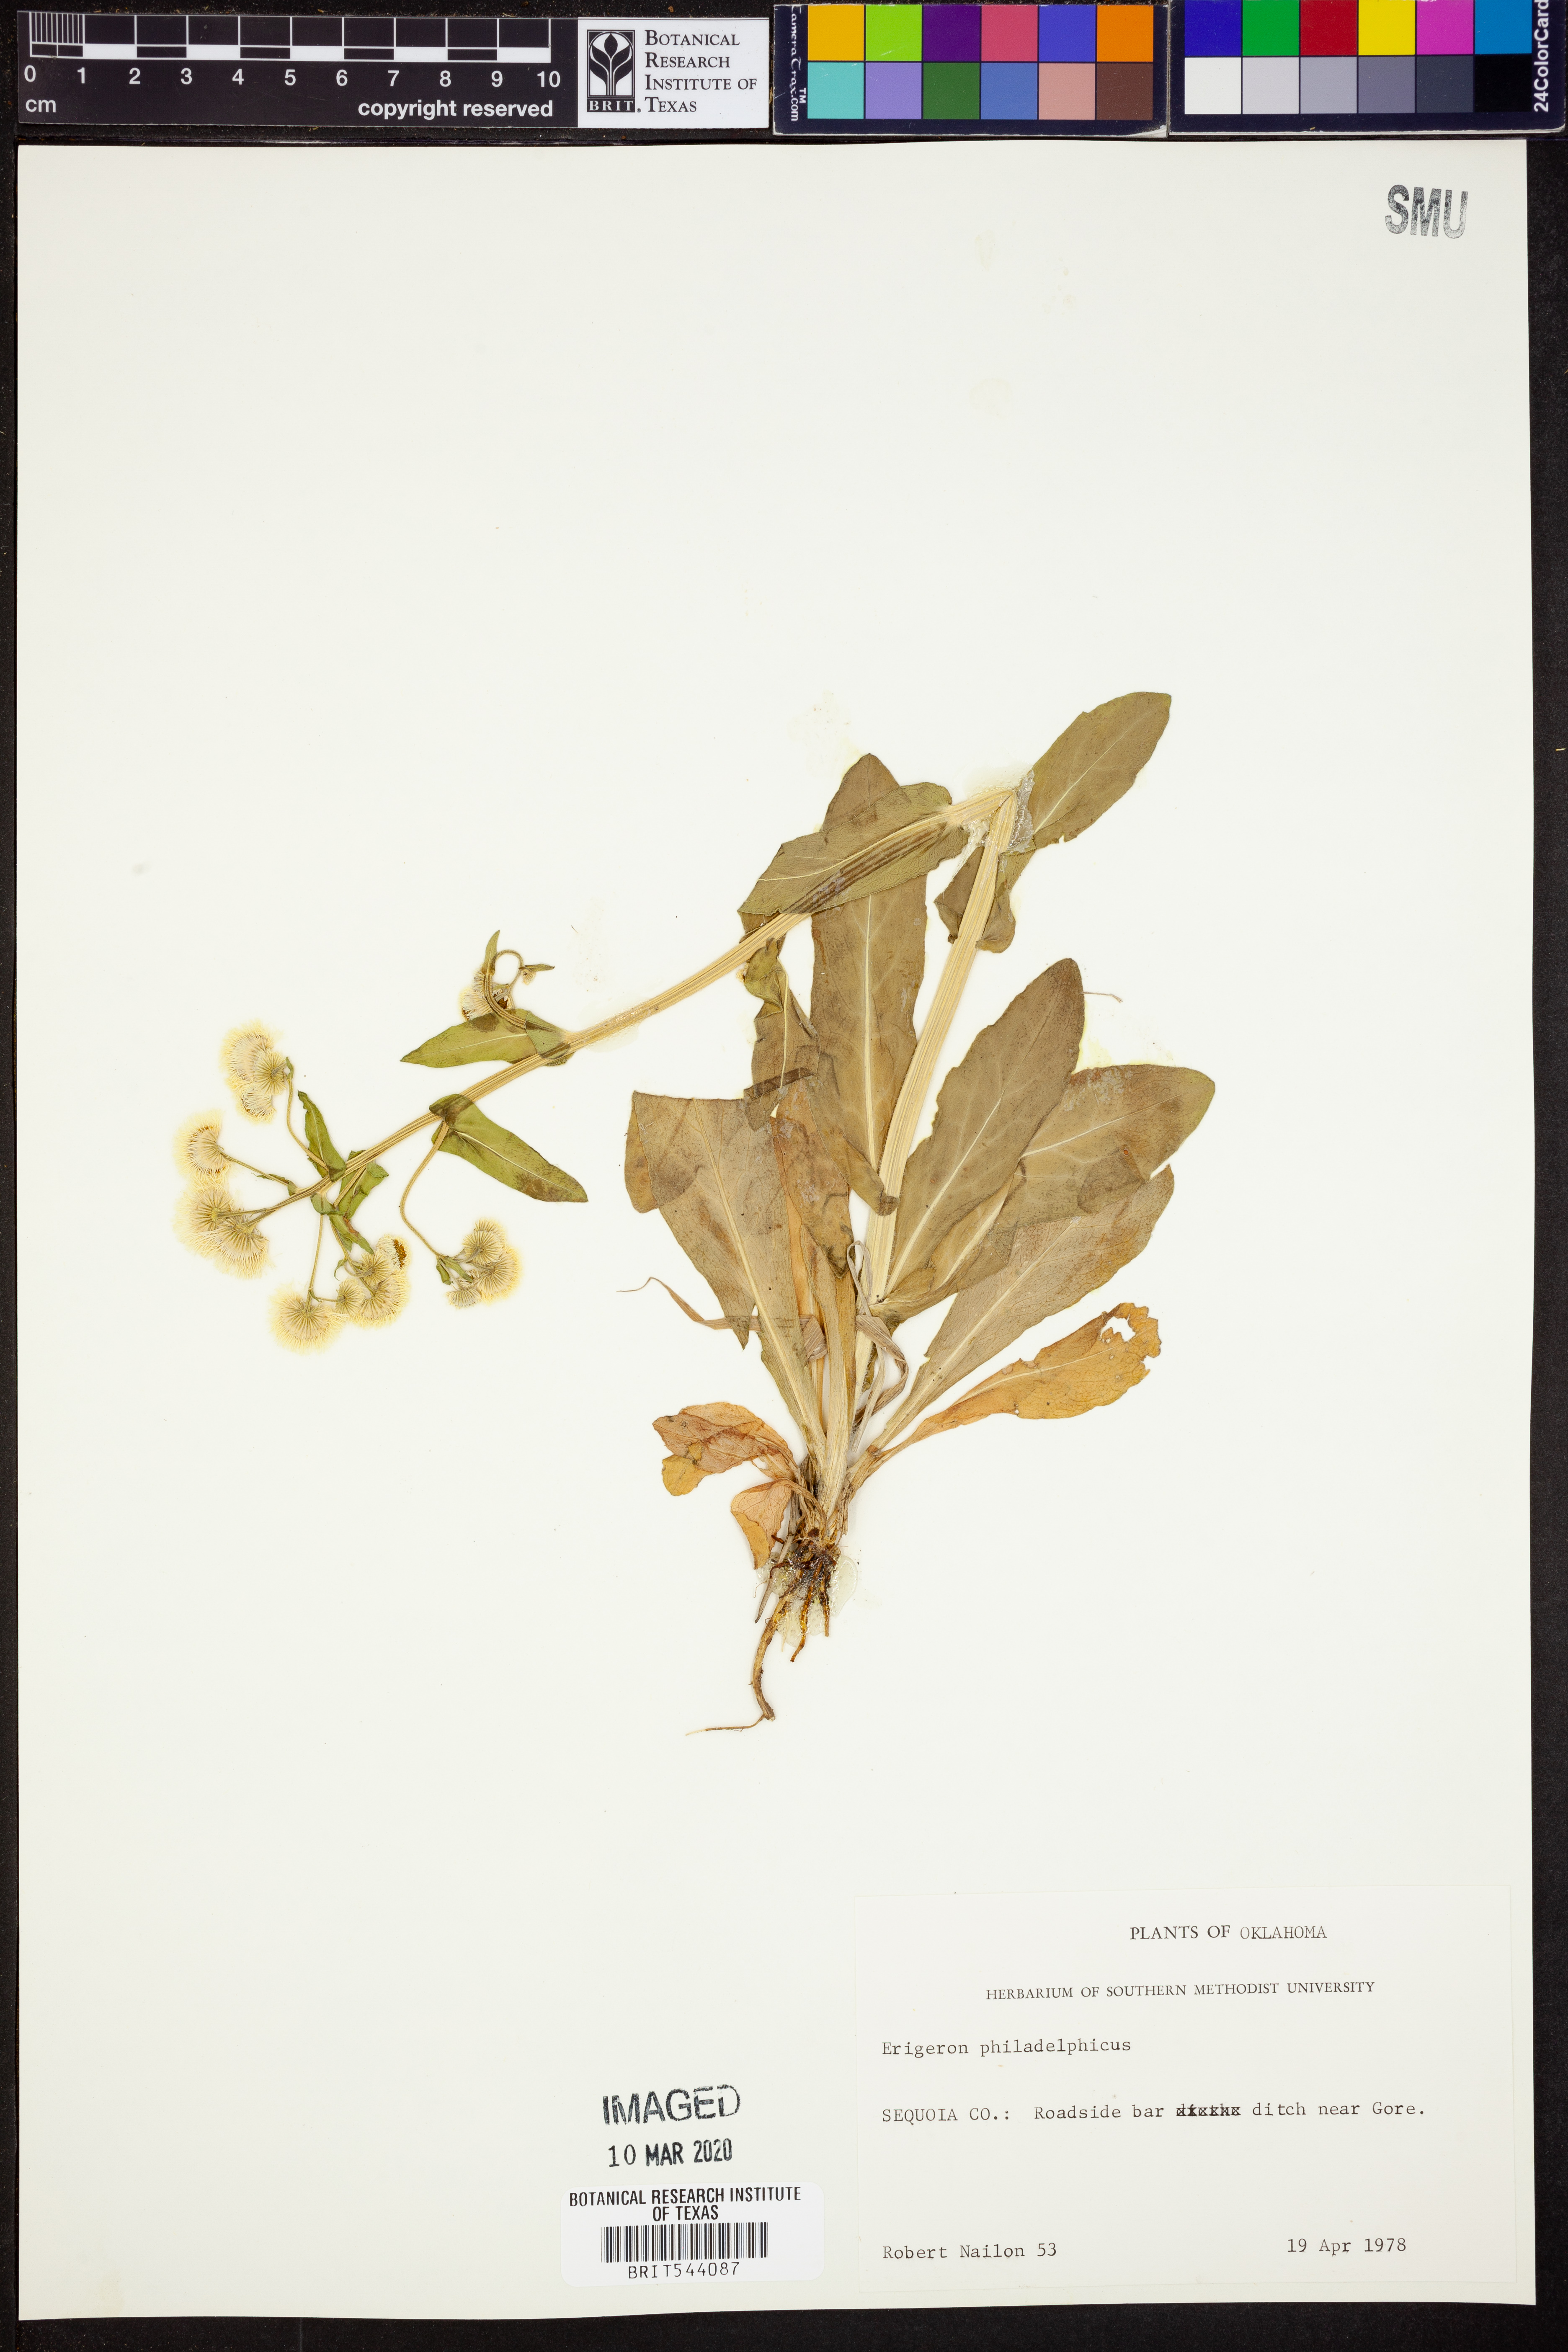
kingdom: Plantae
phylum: Tracheophyta
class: Magnoliopsida
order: Asterales
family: Asteraceae
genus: Erigeron
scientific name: Erigeron philadelphicus
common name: Robin's-plantain
